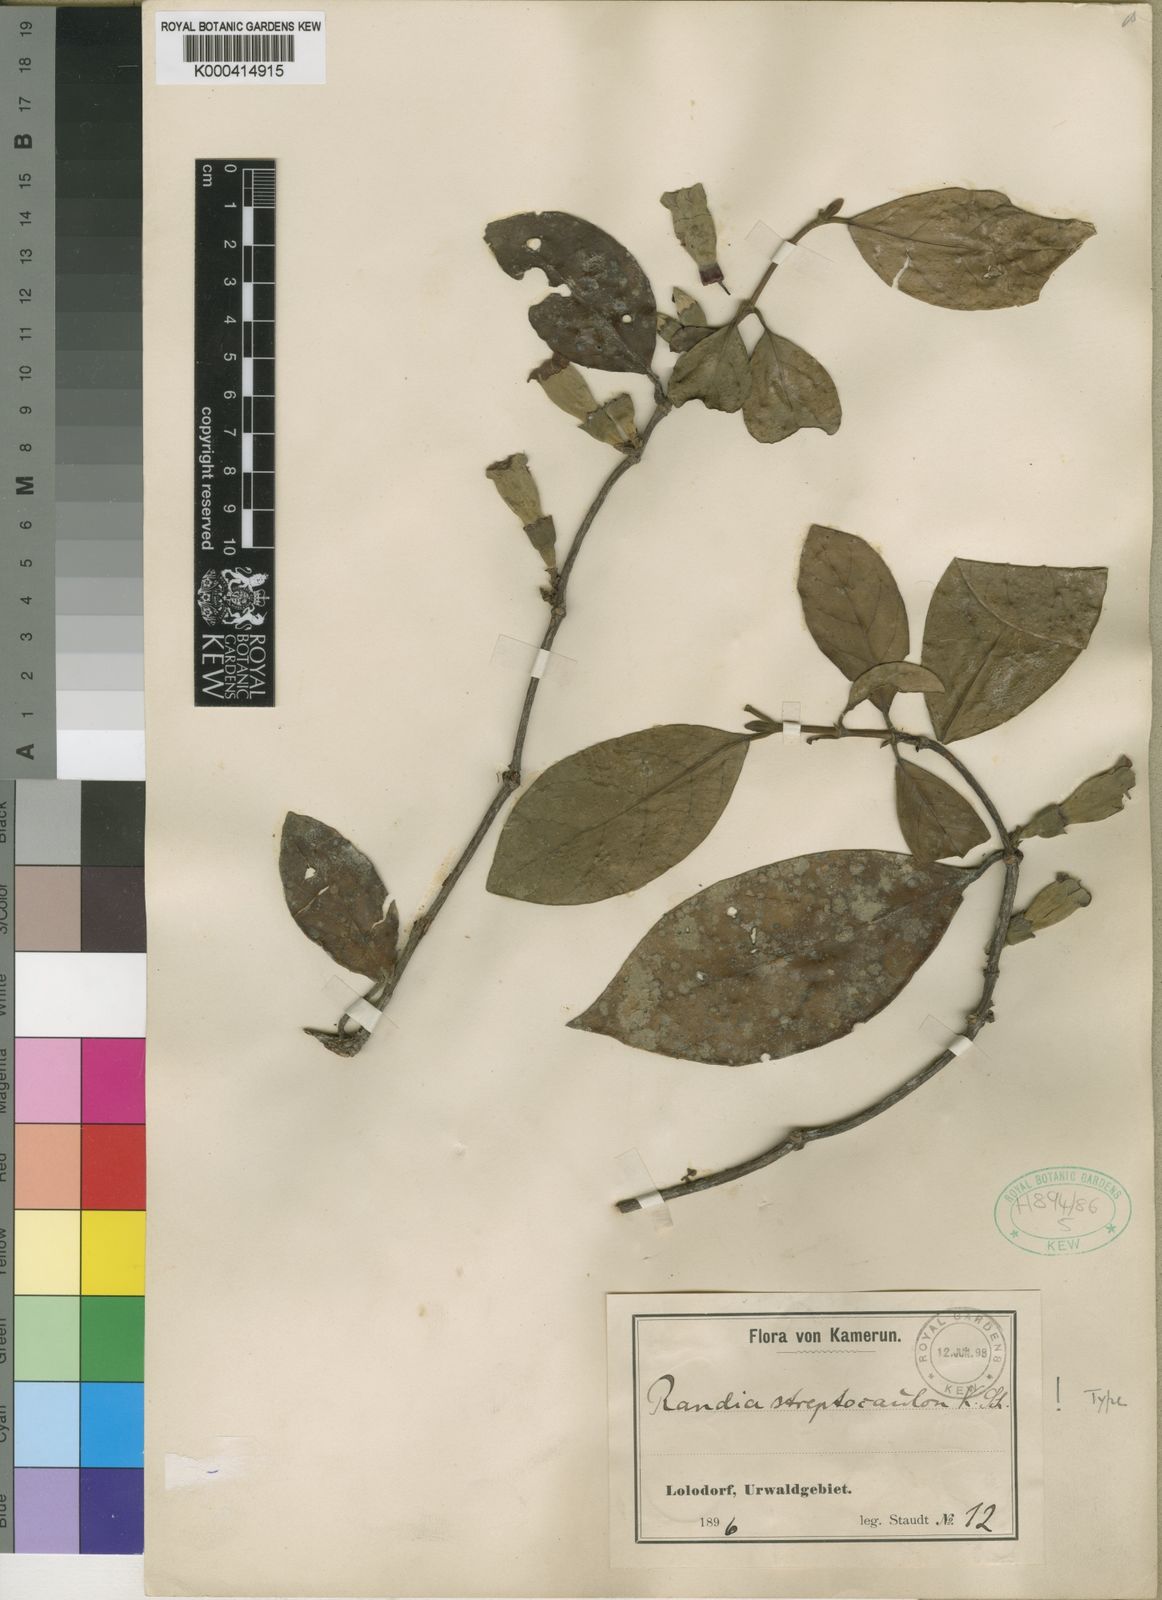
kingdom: Plantae
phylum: Tracheophyta
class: Magnoliopsida
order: Gentianales
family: Rubiaceae
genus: Sherbournia
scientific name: Sherbournia streptocaulon
